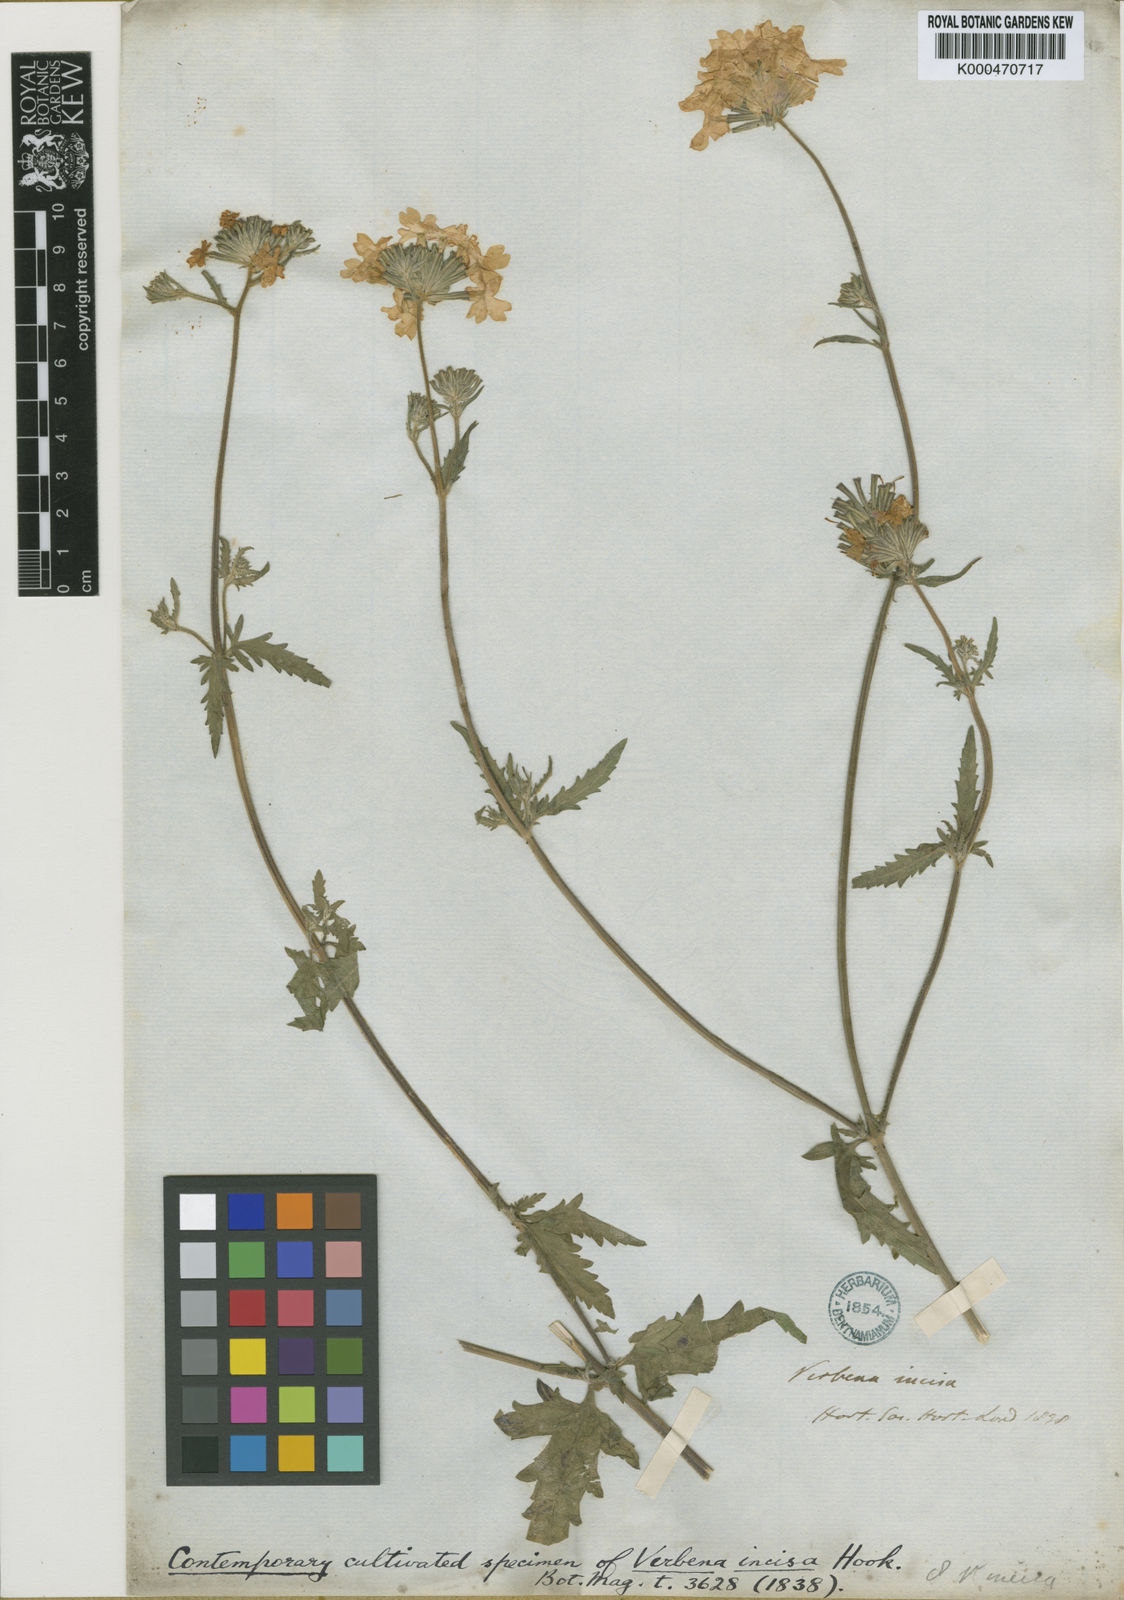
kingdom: Plantae
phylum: Tracheophyta
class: Magnoliopsida
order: Lamiales
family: Verbenaceae
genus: Verbena
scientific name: Verbena tweedieana
